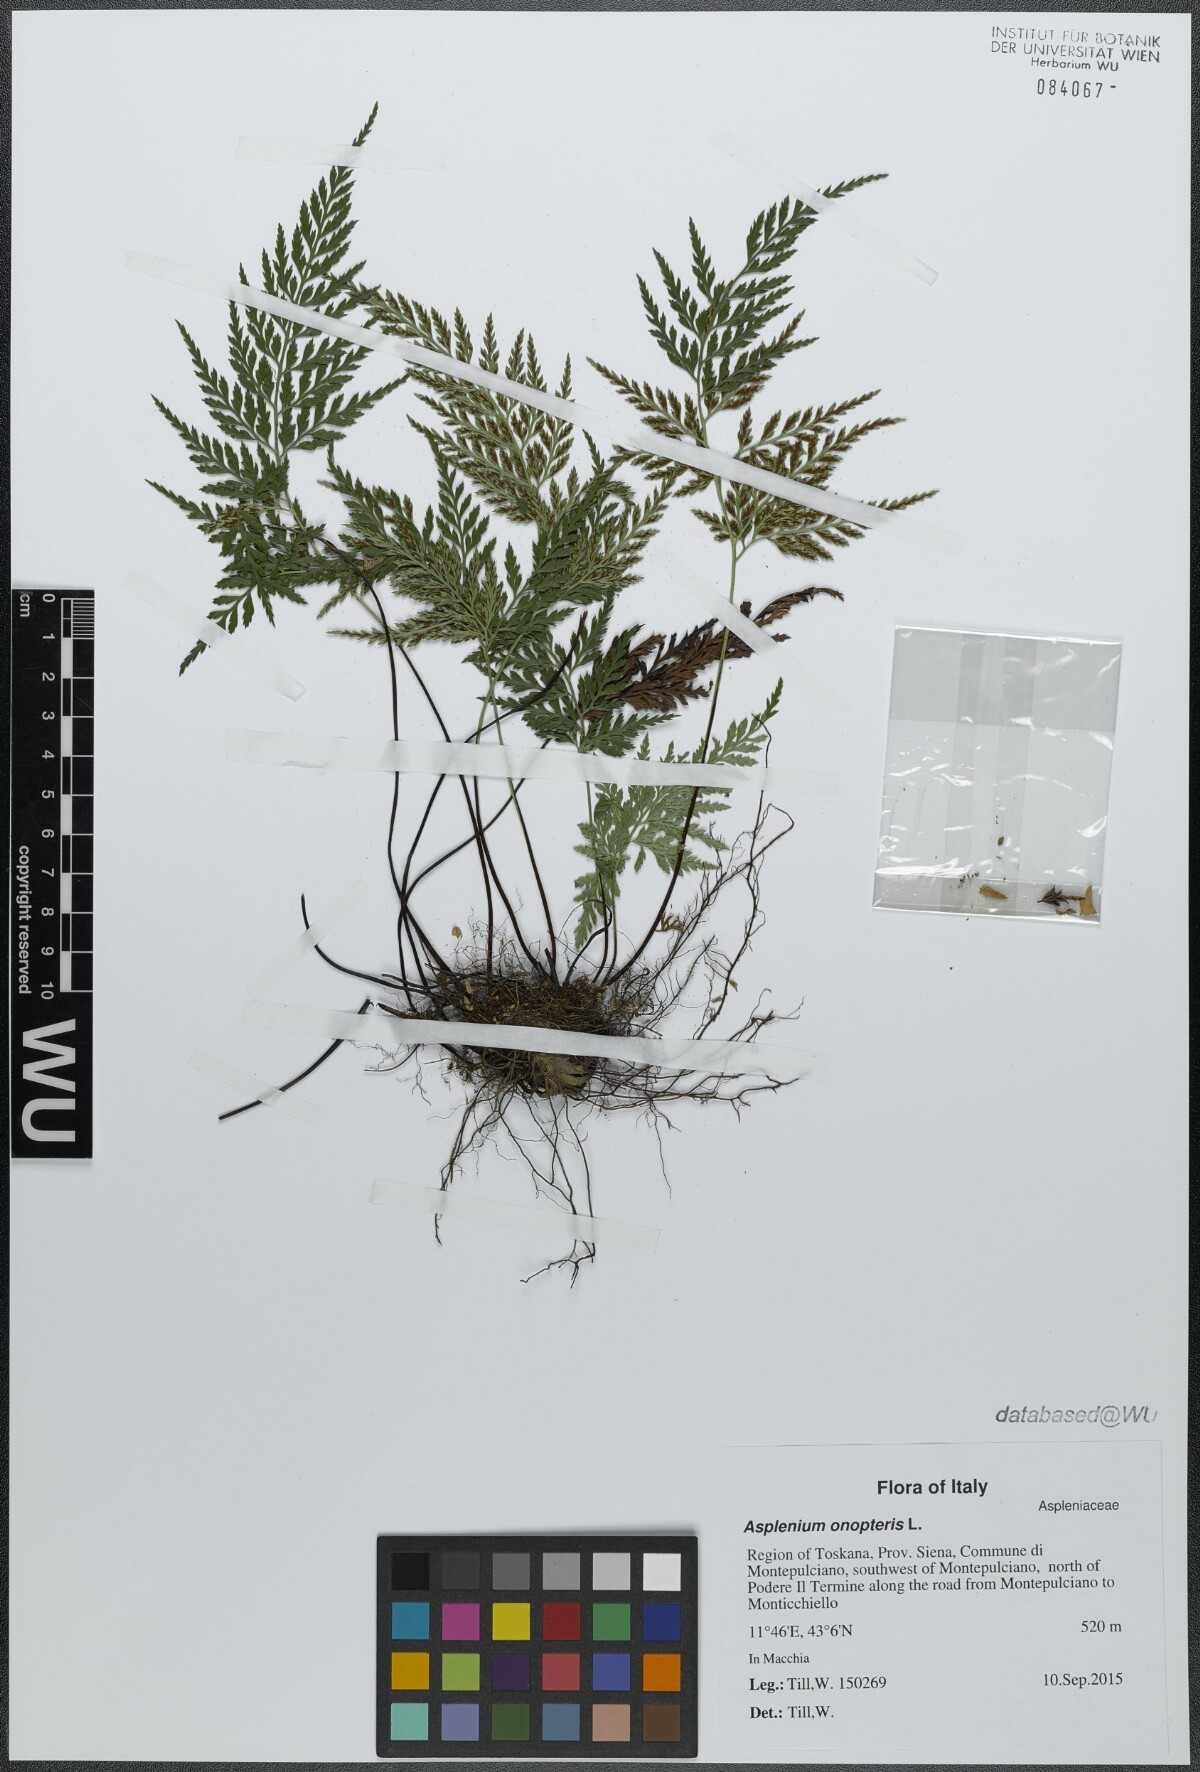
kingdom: Plantae
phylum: Tracheophyta
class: Polypodiopsida
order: Polypodiales
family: Aspleniaceae
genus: Asplenium
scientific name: Asplenium onopteris
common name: Irish spleenwort
